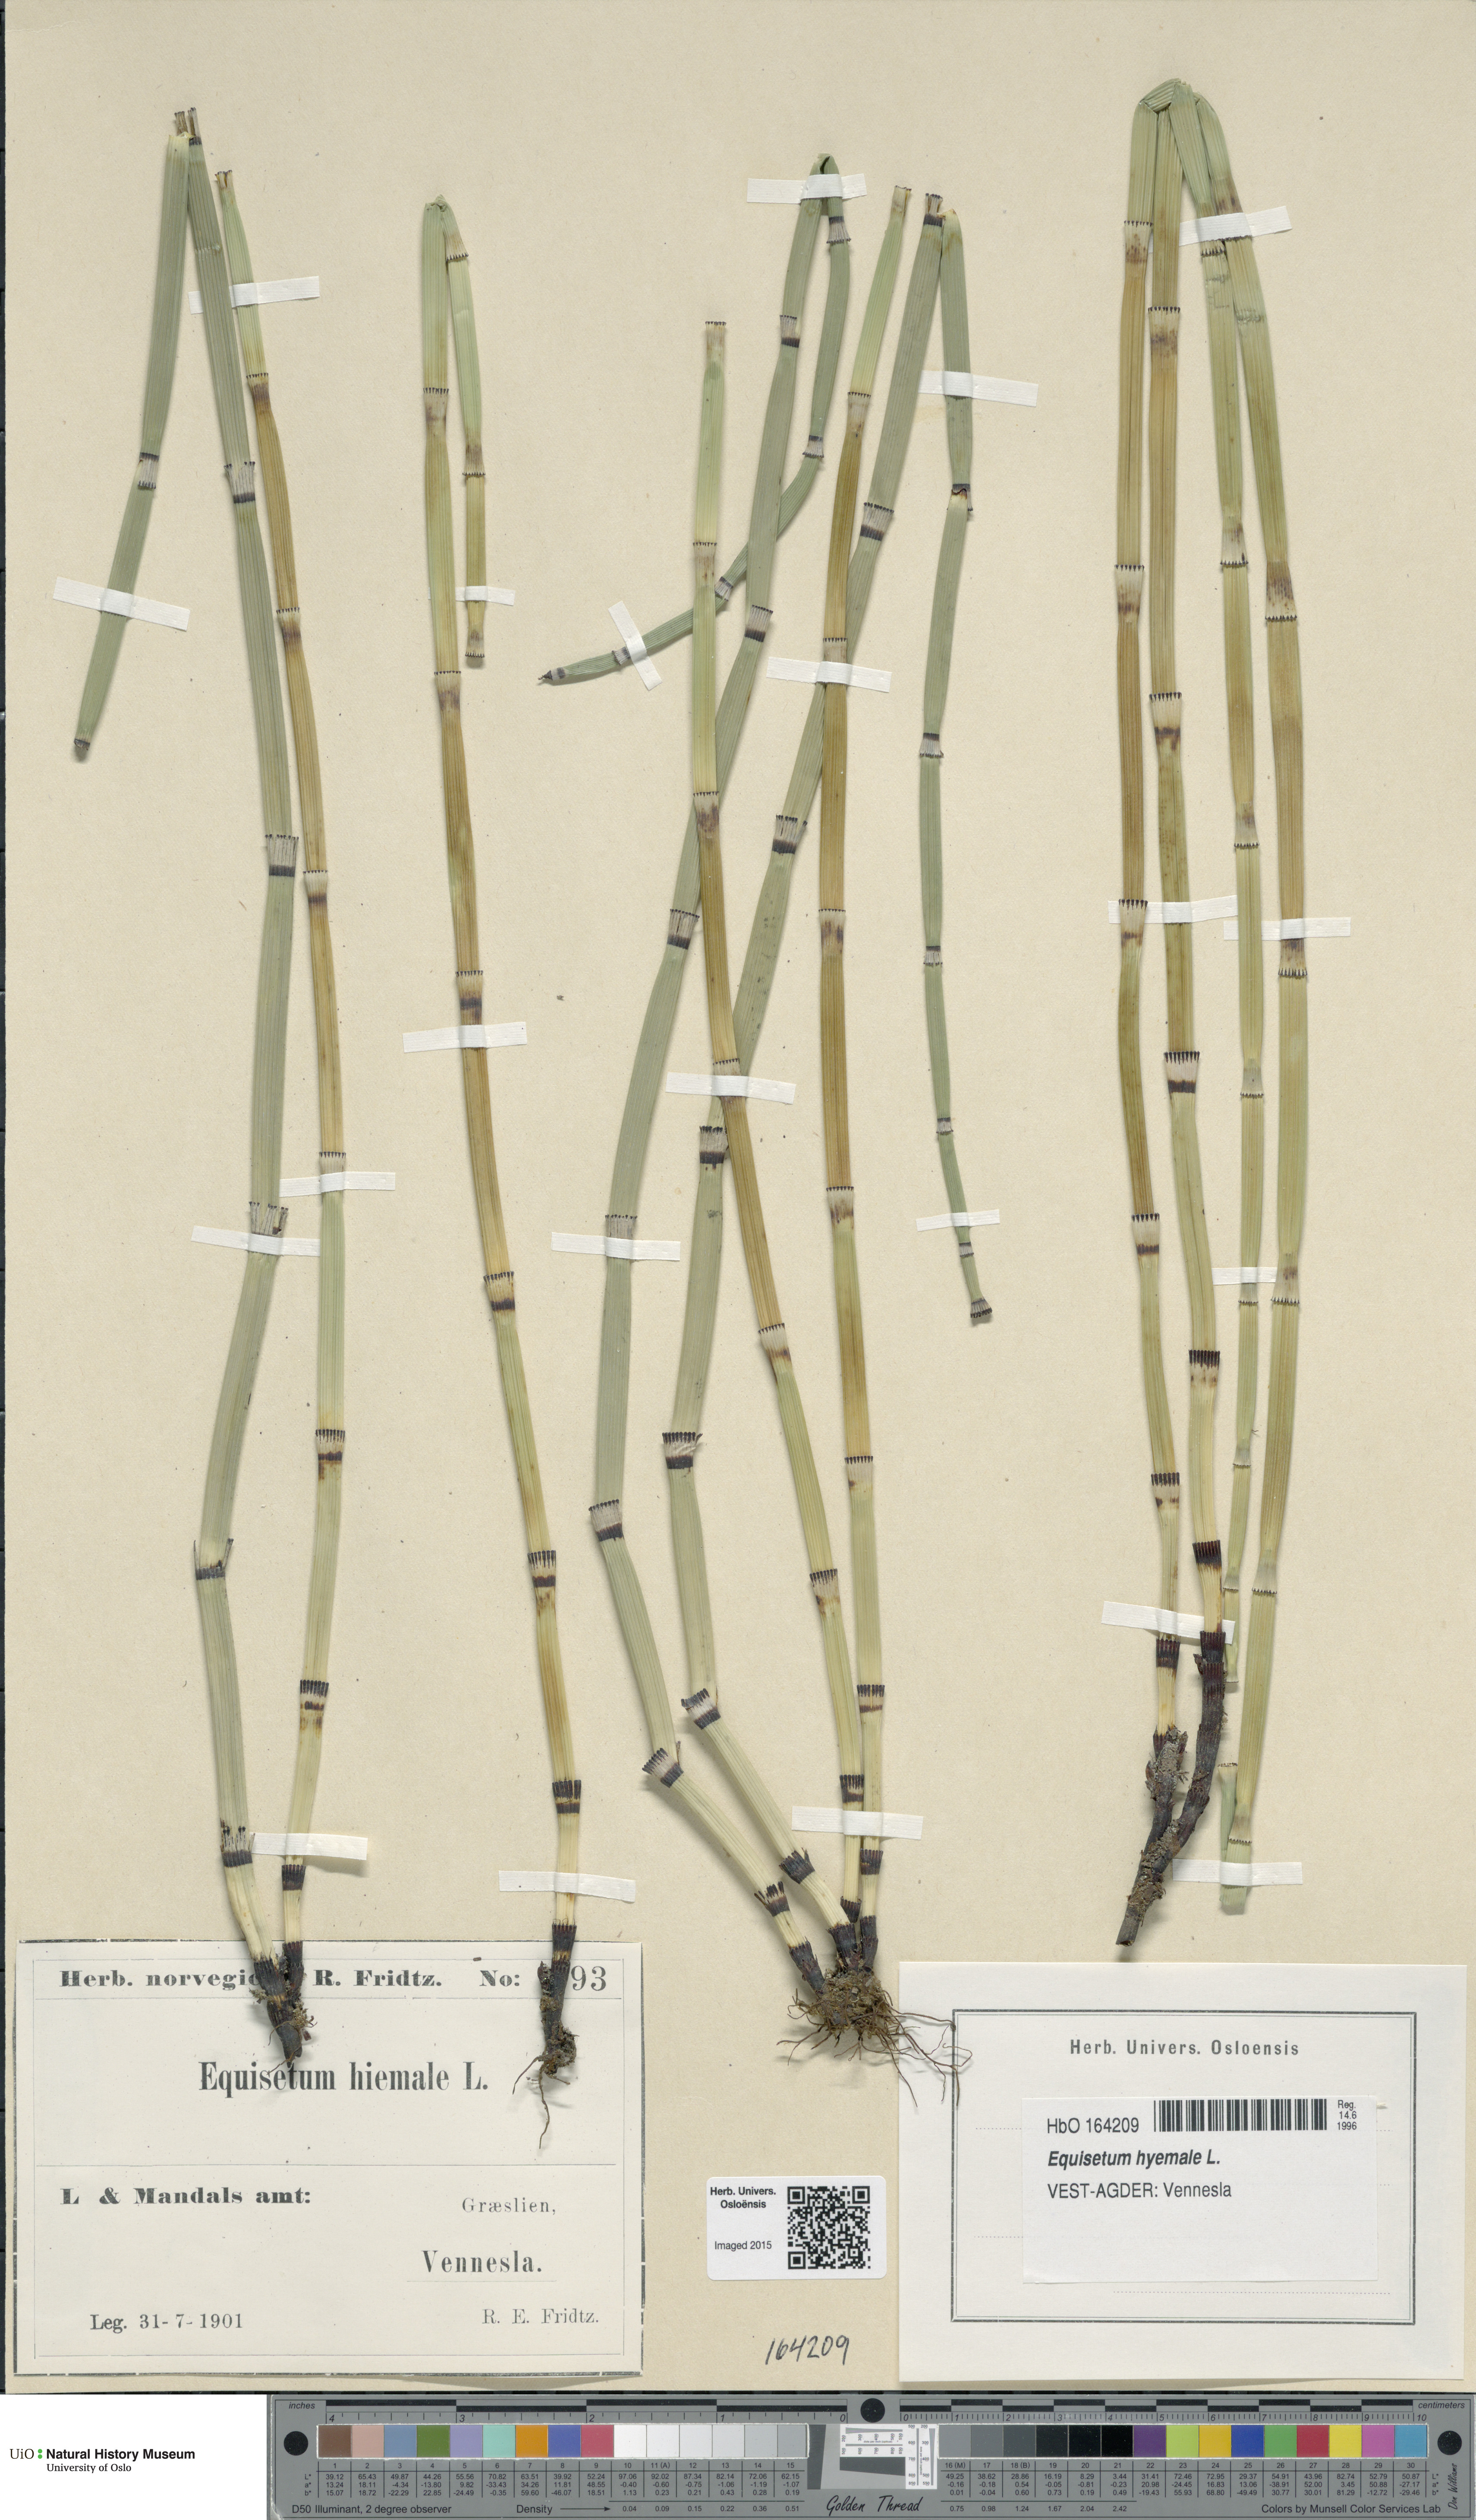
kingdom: Plantae
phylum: Tracheophyta
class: Polypodiopsida
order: Equisetales
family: Equisetaceae
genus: Equisetum
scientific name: Equisetum hyemale
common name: Rough horsetail
